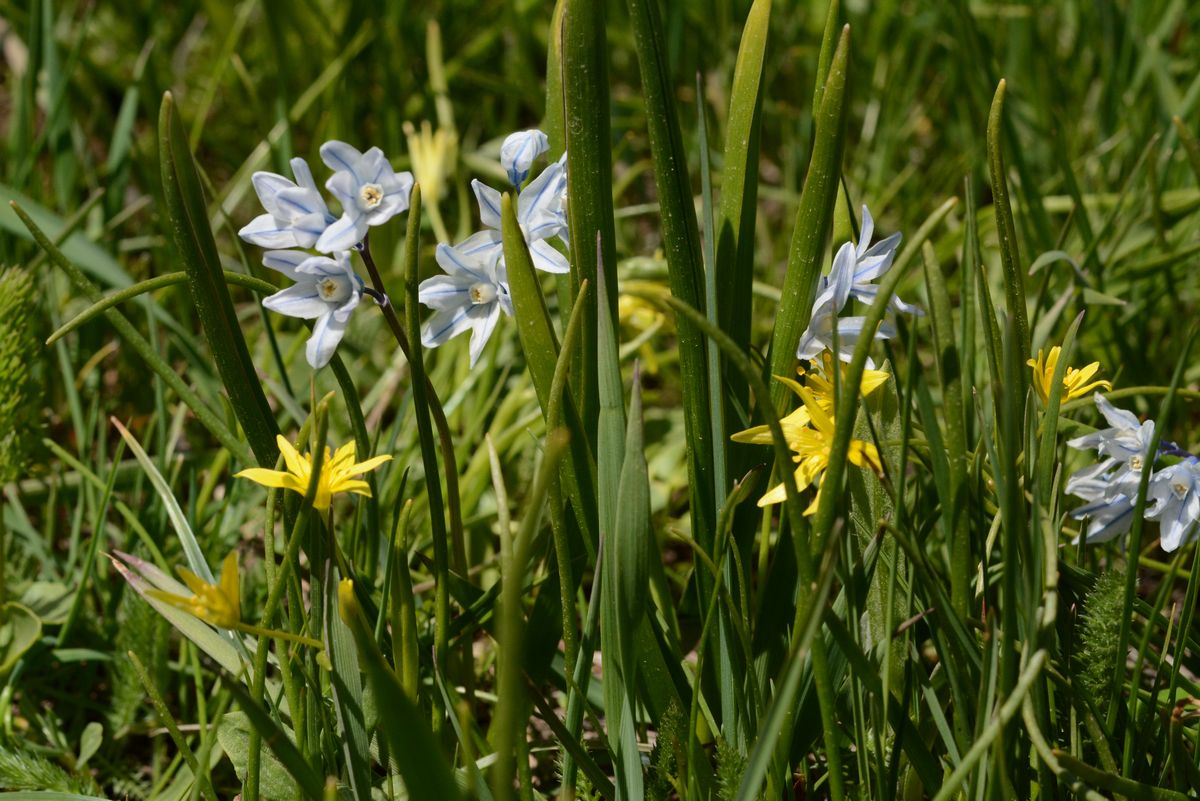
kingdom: Plantae
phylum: Tracheophyta
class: Liliopsida
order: Asparagales
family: Asparagaceae
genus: Puschkinia
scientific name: Puschkinia scilloides
